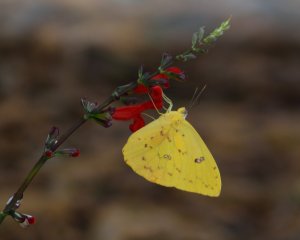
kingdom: Animalia
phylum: Arthropoda
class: Insecta
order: Lepidoptera
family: Pieridae
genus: Phoebis
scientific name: Phoebis sennae
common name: Cloudless Sulphur
